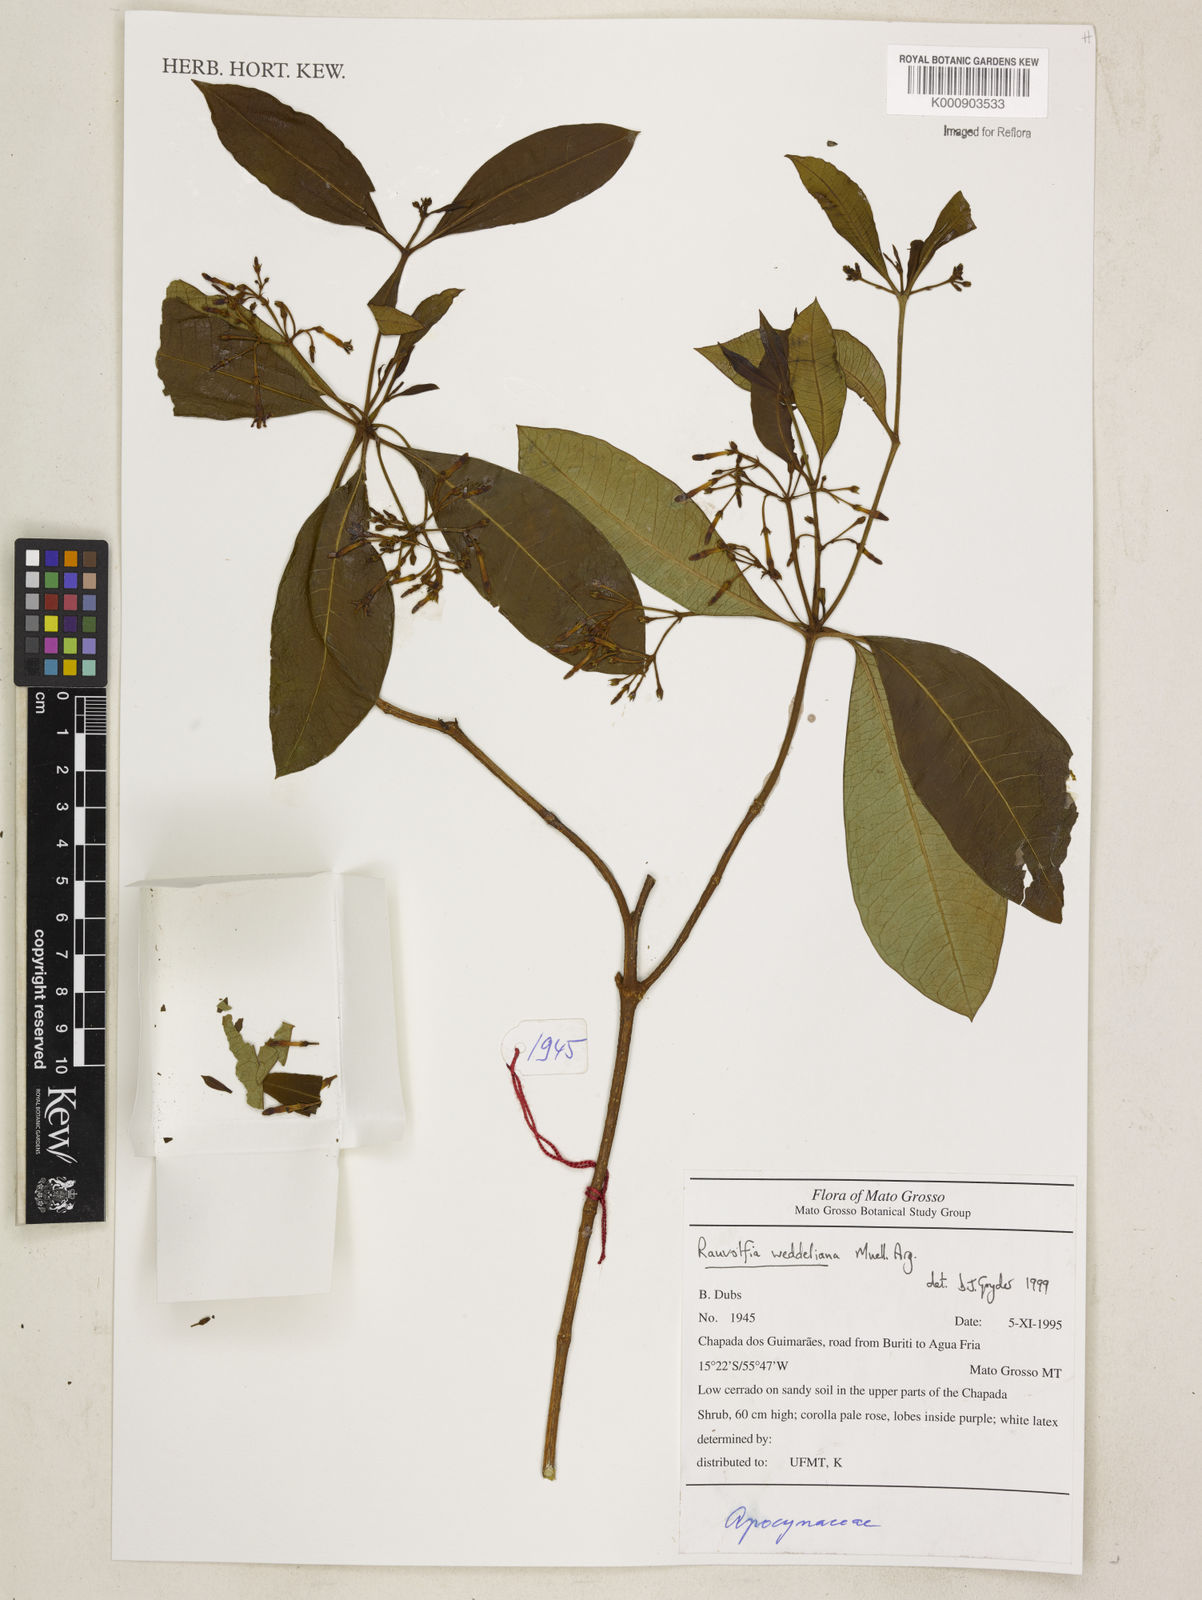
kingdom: Plantae
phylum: Tracheophyta
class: Magnoliopsida
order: Gentianales
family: Apocynaceae
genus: Rauvolfia
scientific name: Rauvolfia
